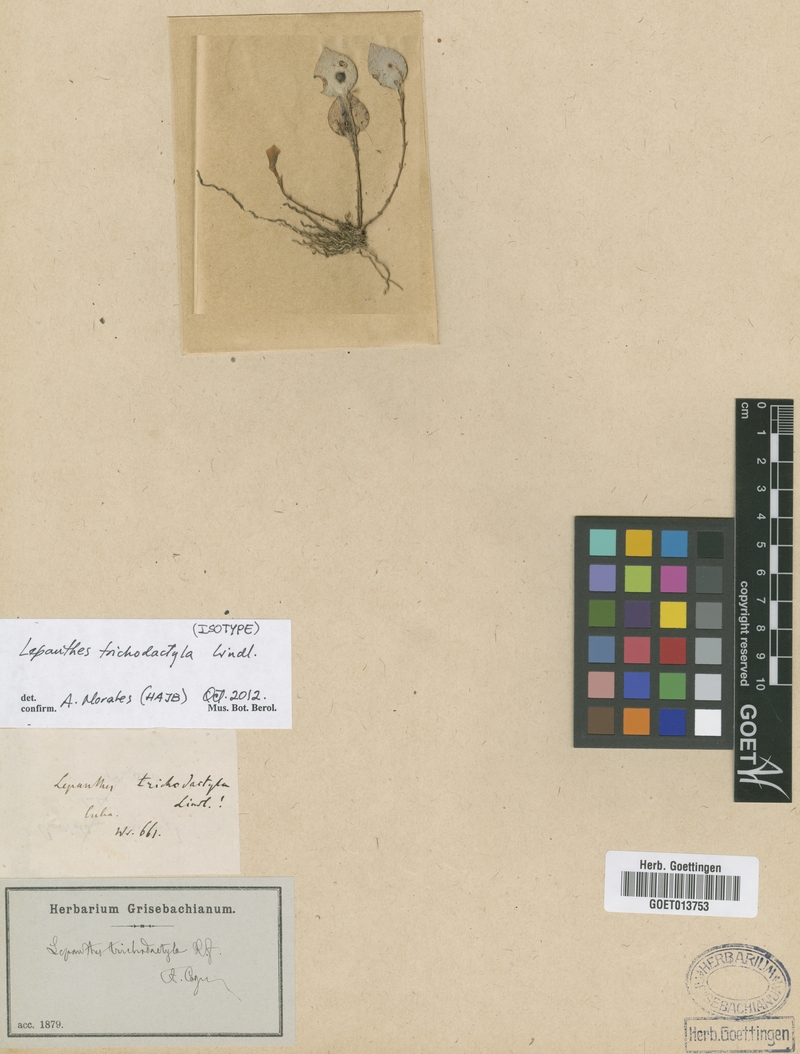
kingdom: Plantae
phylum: Tracheophyta
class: Liliopsida
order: Asparagales
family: Orchidaceae
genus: Lepanthes
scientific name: Lepanthes trichodactyla
